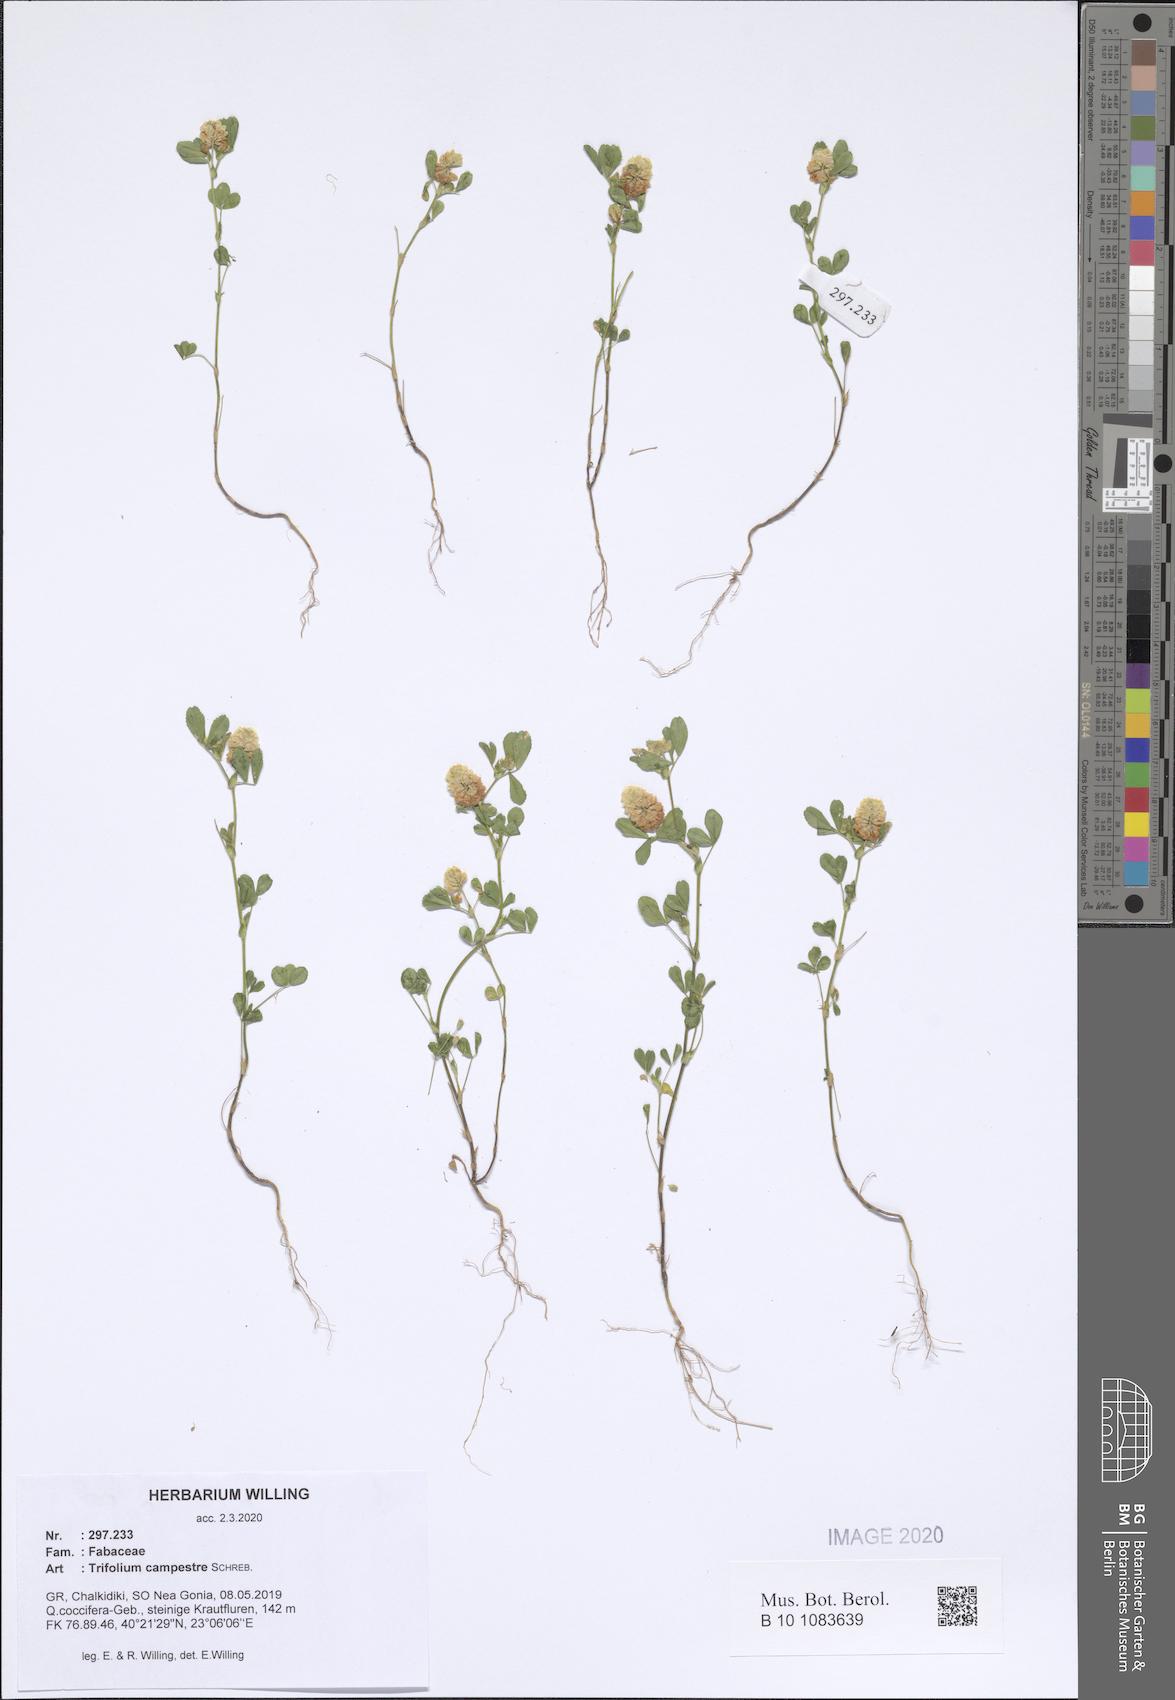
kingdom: Plantae
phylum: Tracheophyta
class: Magnoliopsida
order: Fabales
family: Fabaceae
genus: Trifolium
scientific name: Trifolium campestre
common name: Field clover
